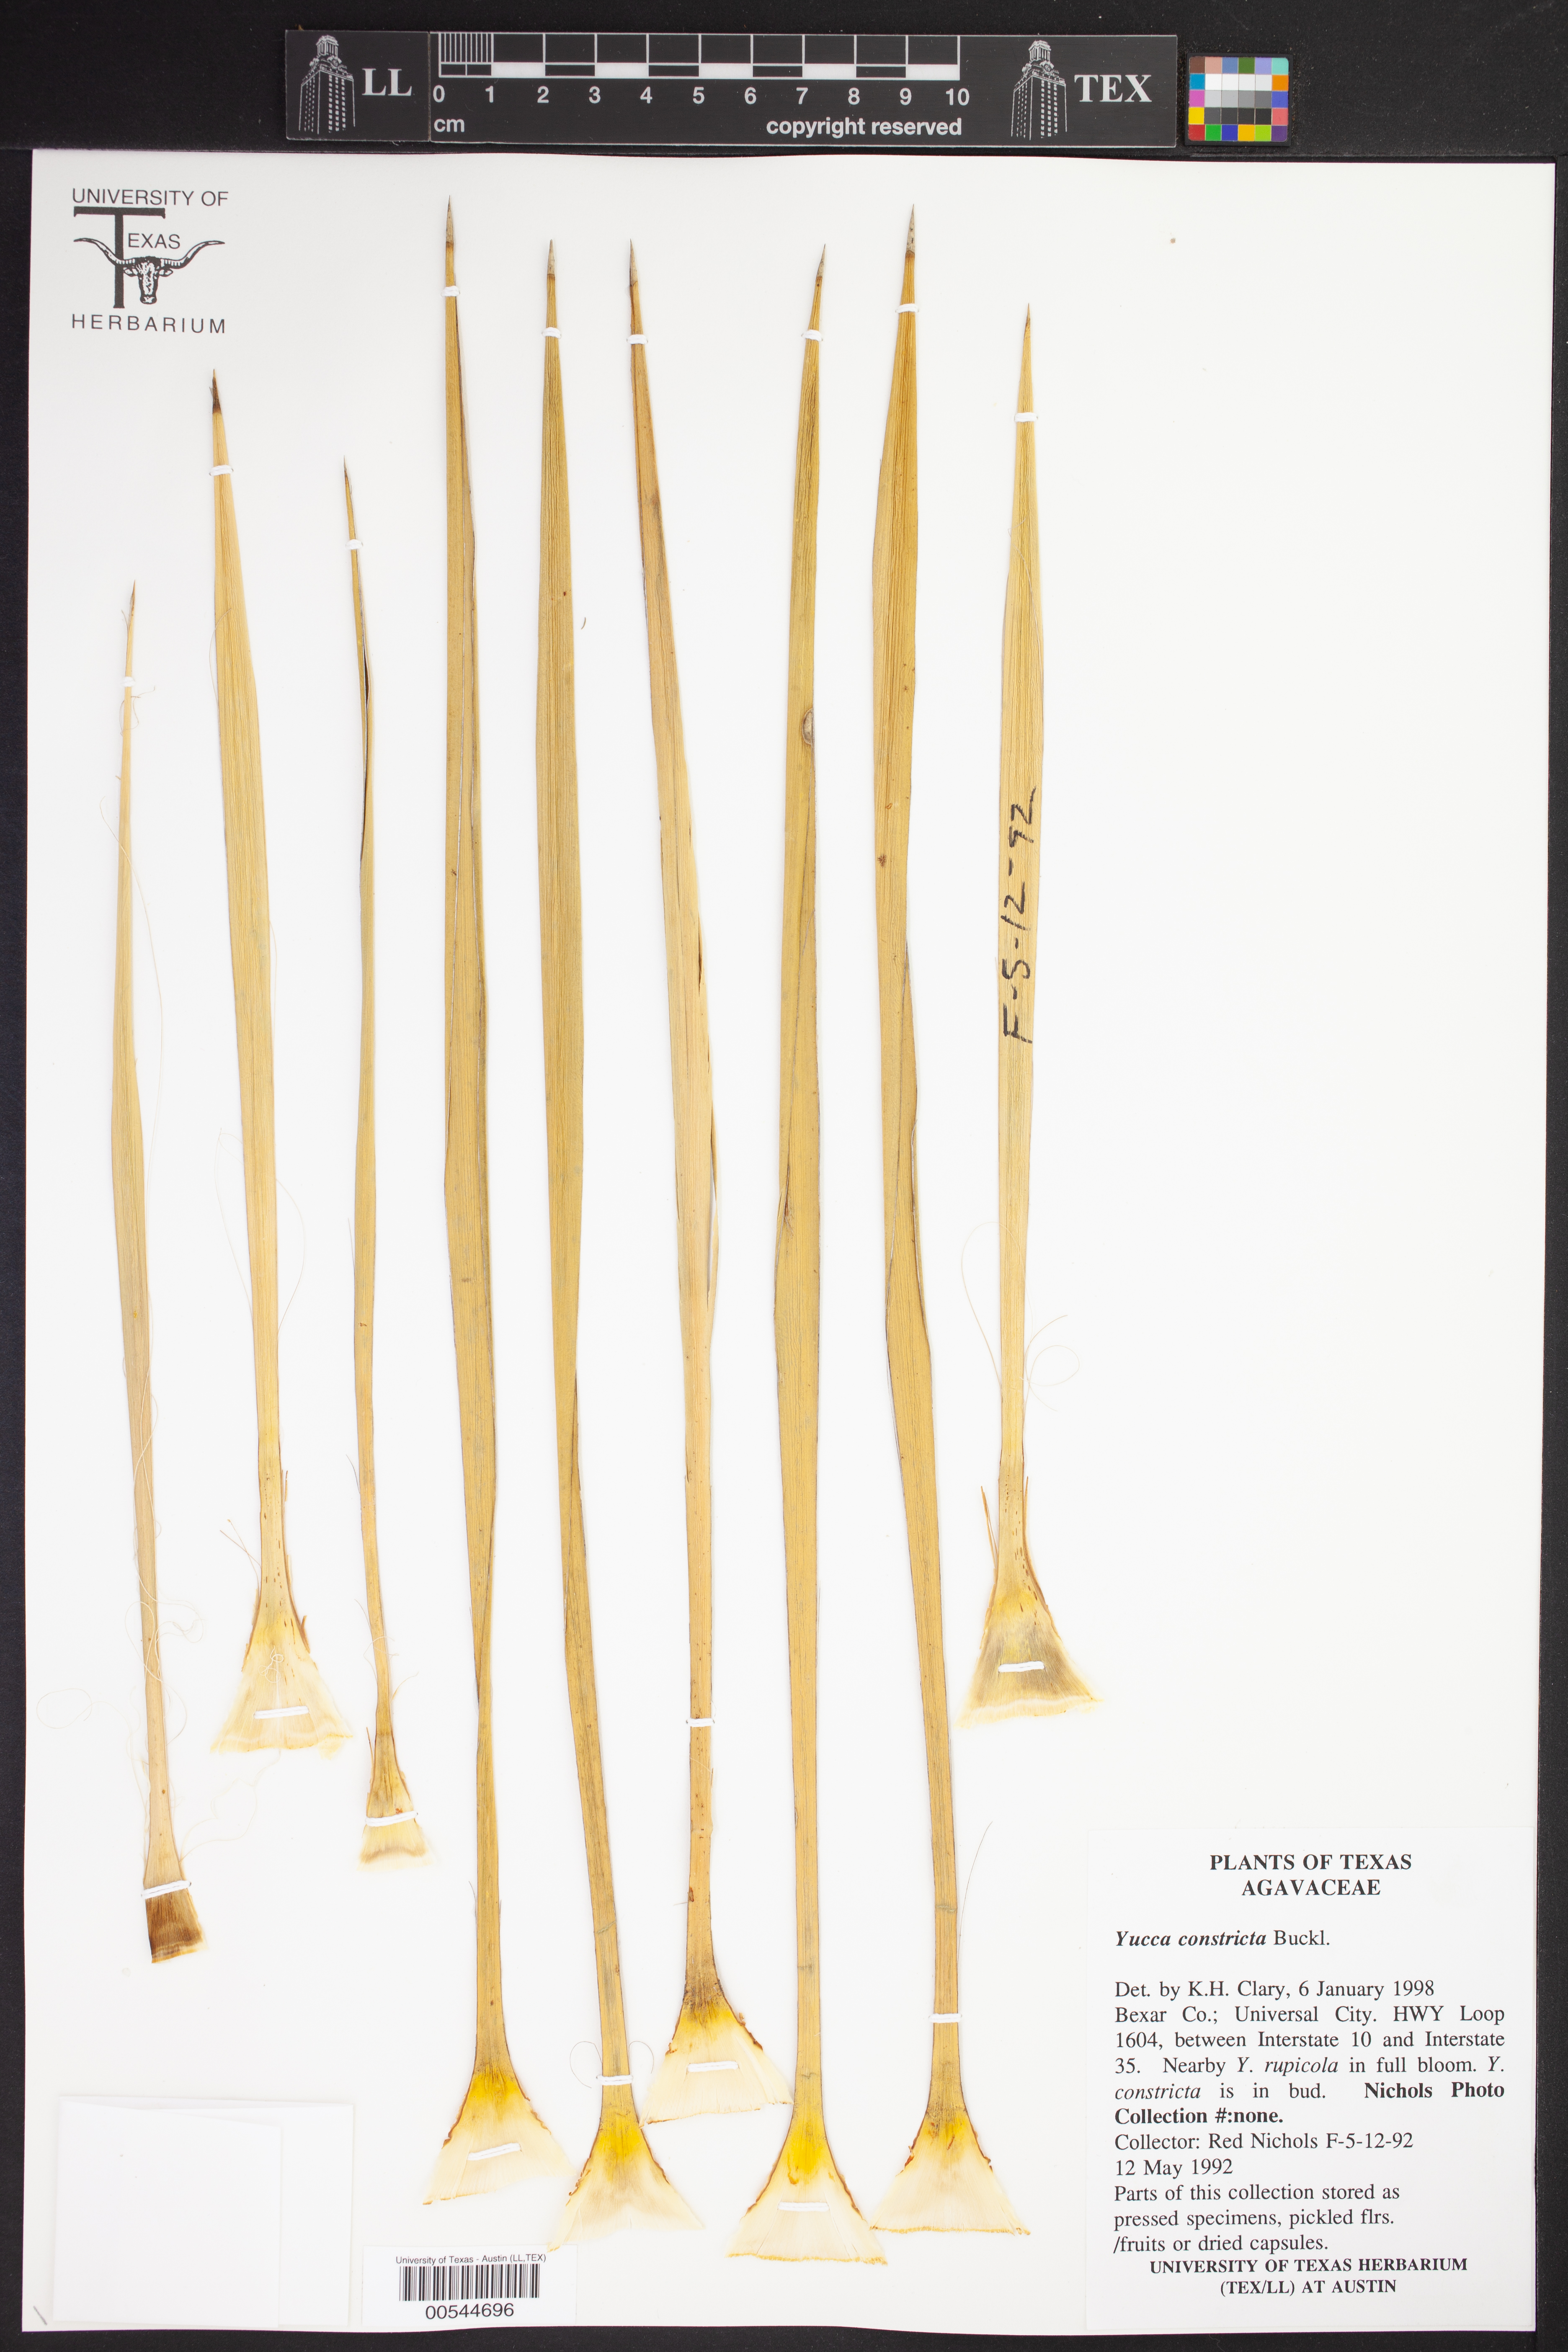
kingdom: Plantae
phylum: Tracheophyta
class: Liliopsida
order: Asparagales
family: Asparagaceae
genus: Yucca
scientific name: Yucca constricta
